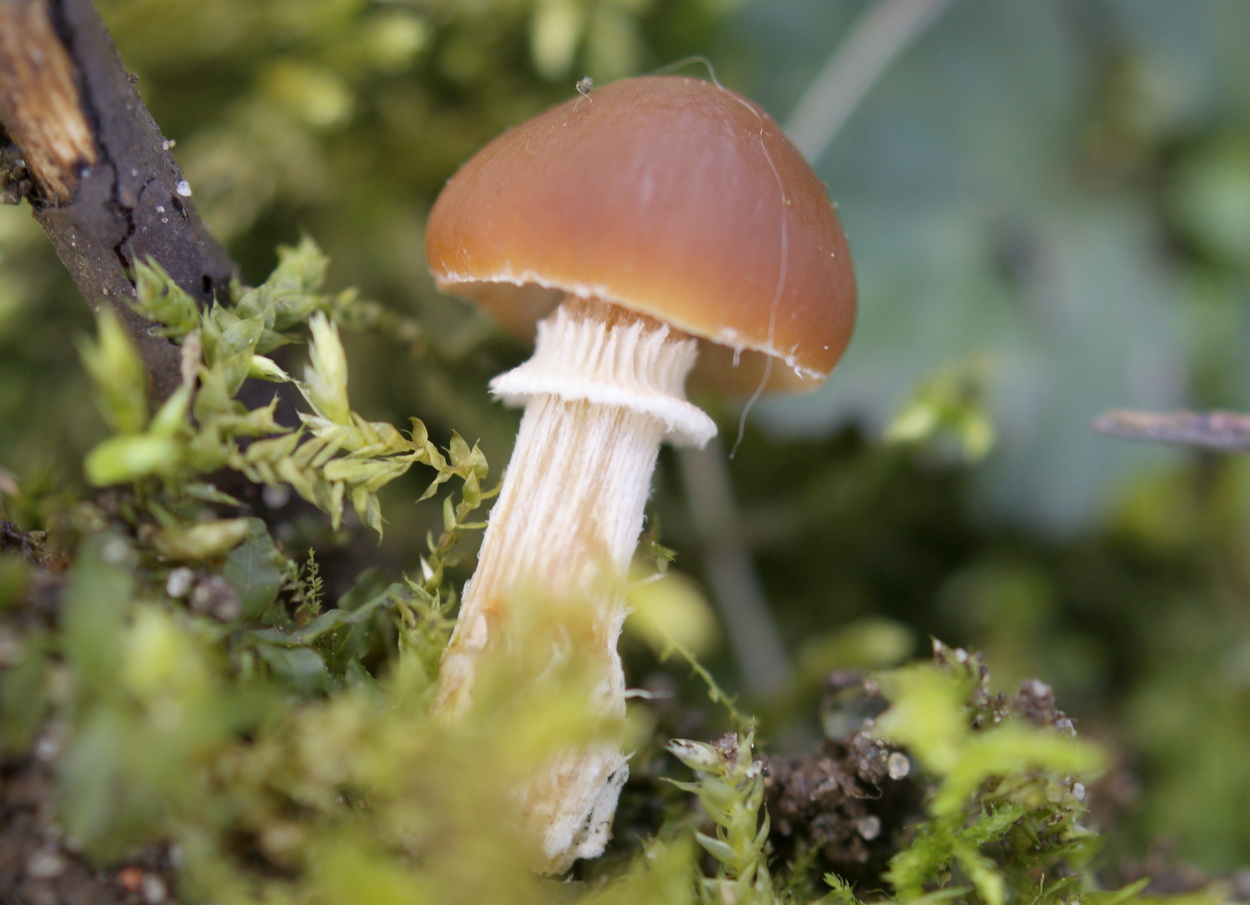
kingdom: Fungi
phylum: Basidiomycota
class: Agaricomycetes
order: Agaricales
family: Bolbitiaceae
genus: Conocybe
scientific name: Conocybe aporos
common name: tidlig dansehat
